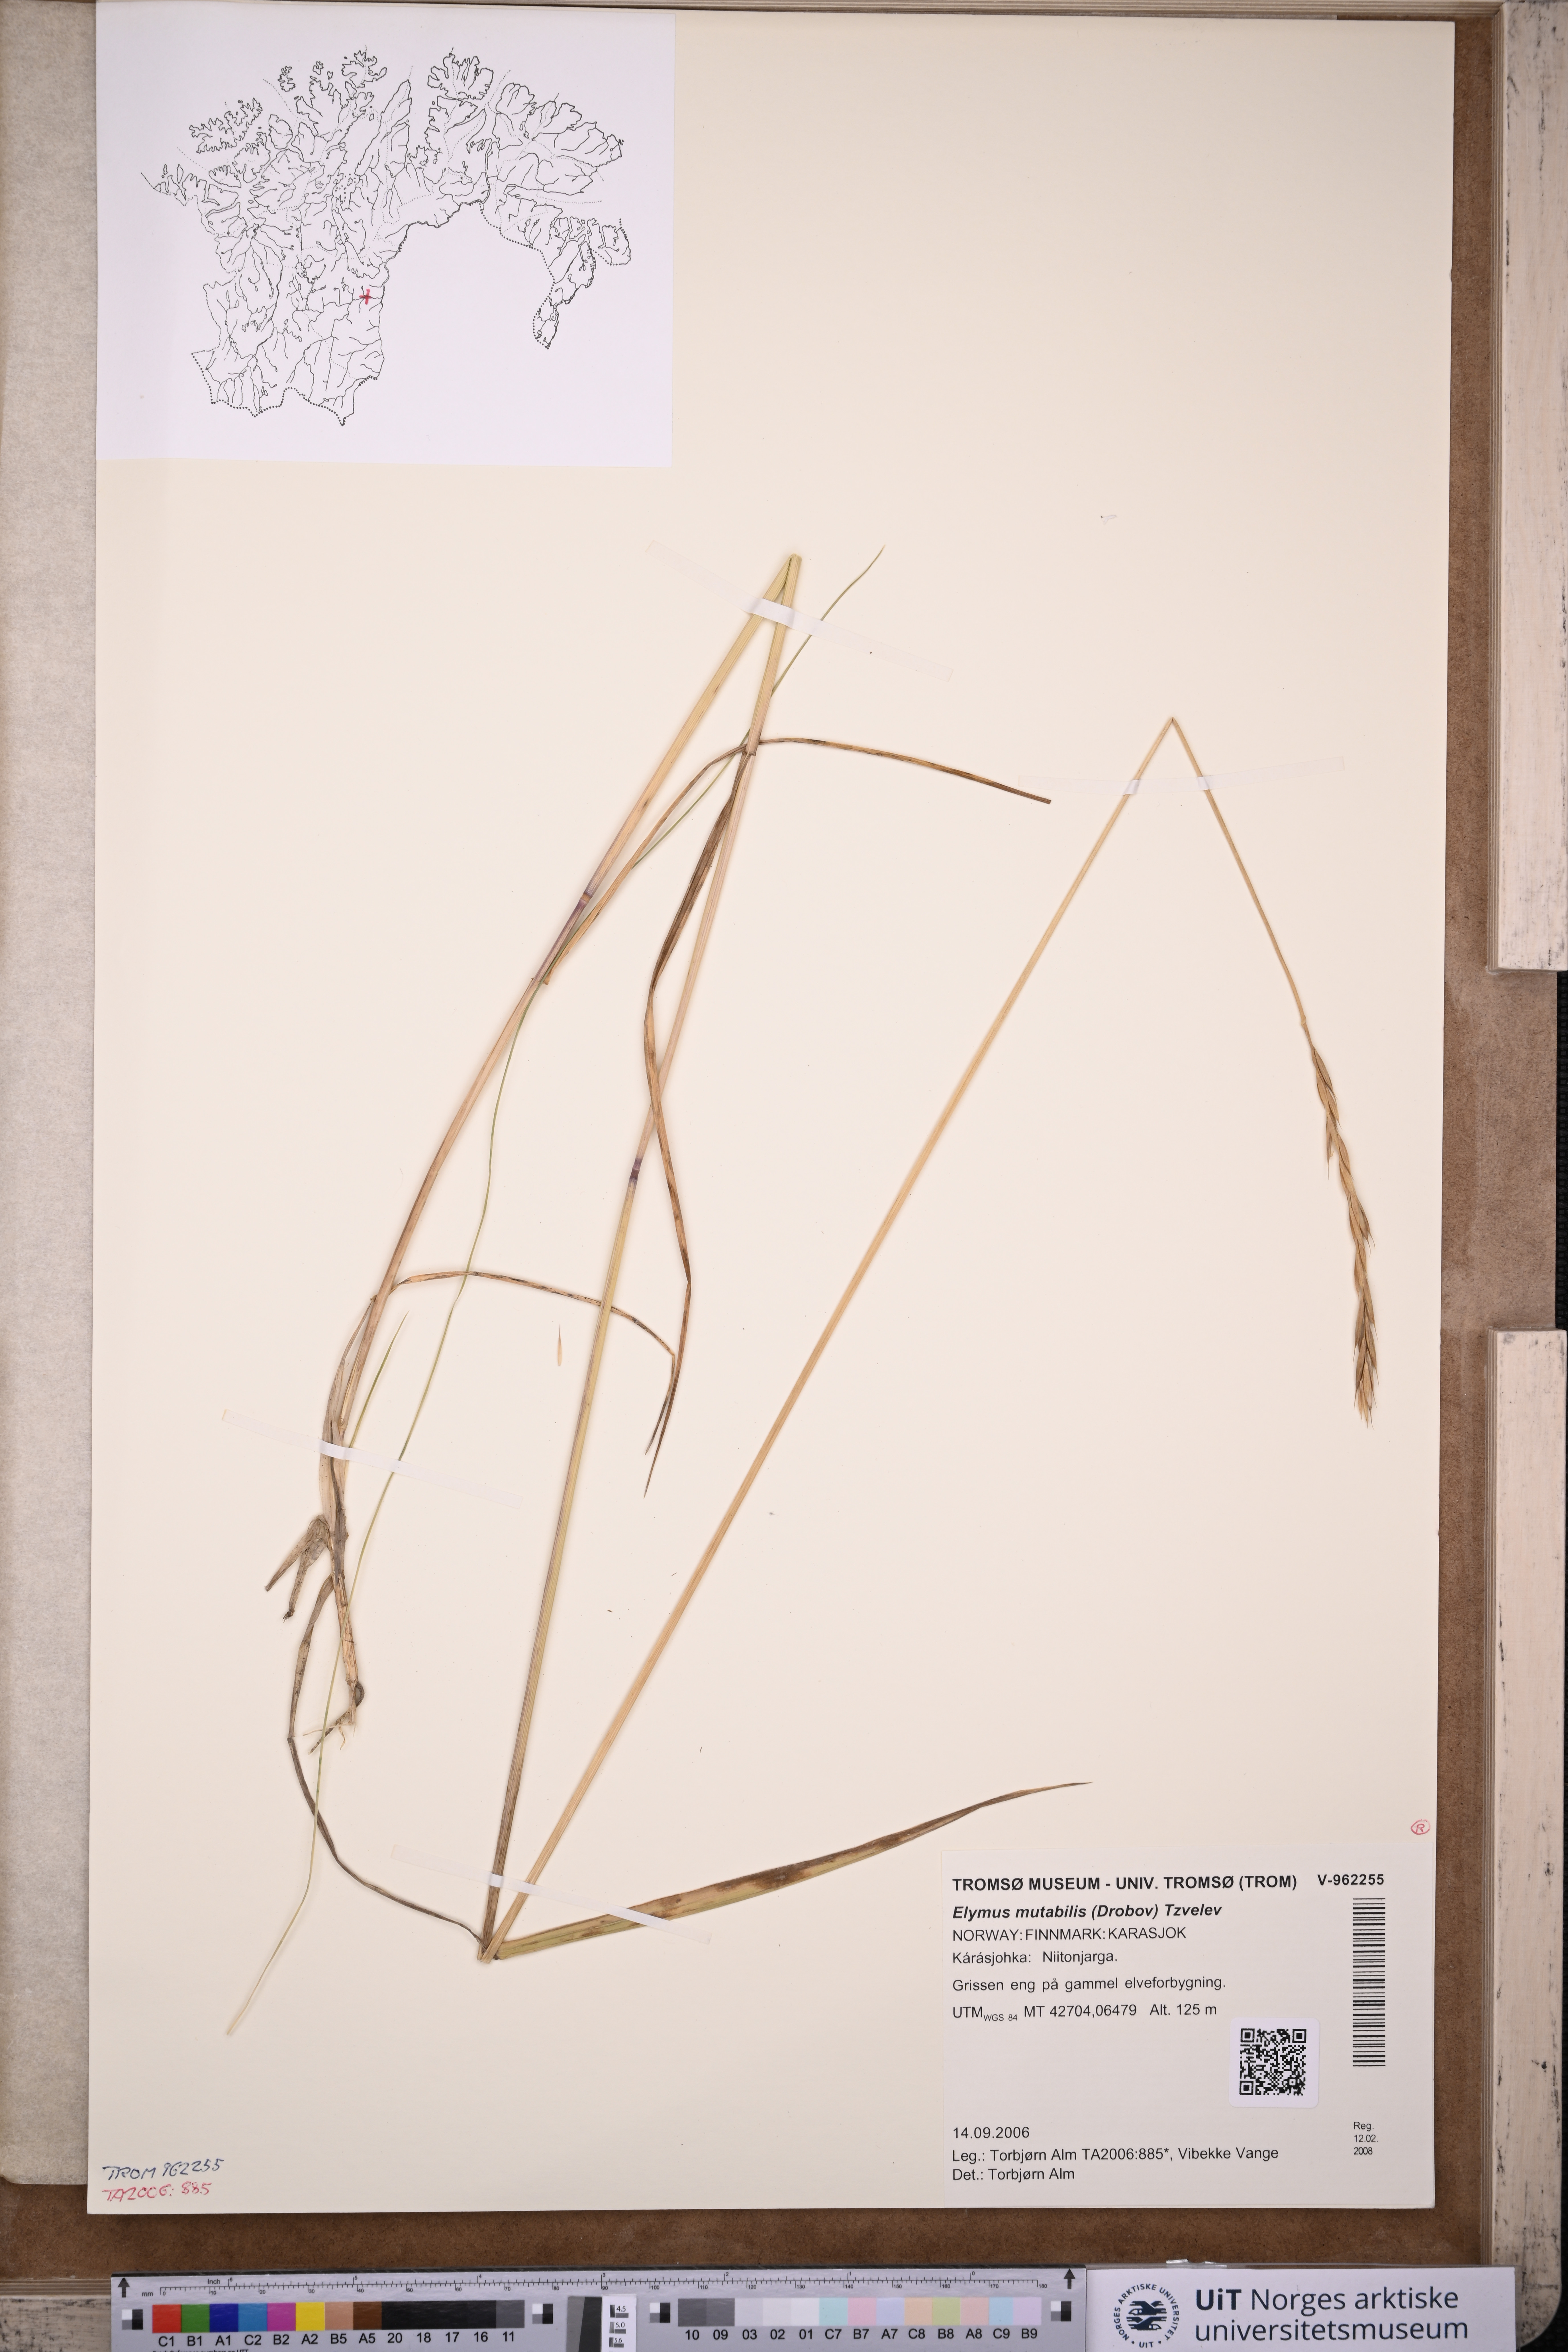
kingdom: Plantae
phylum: Tracheophyta
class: Liliopsida
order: Poales
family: Poaceae
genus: Elymus
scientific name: Elymus mutabilis
